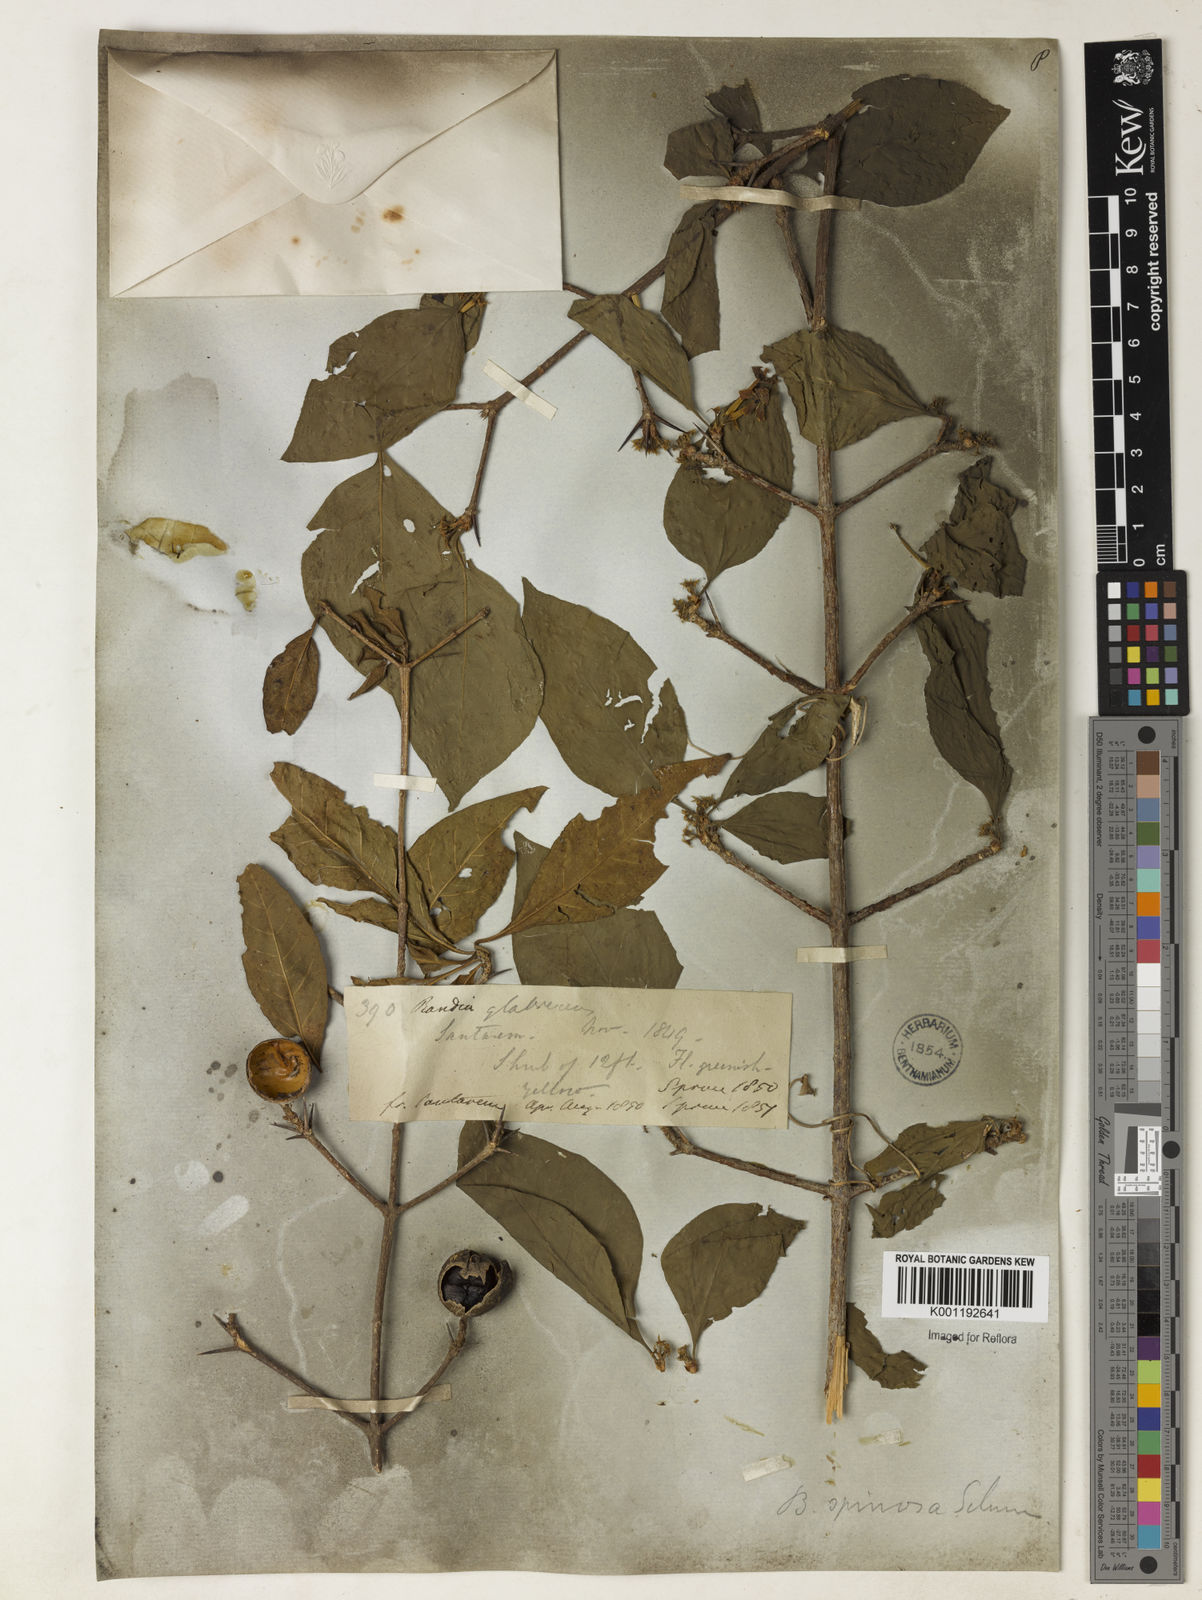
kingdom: Plantae
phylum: Tracheophyta
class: Magnoliopsida
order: Gentianales
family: Rubiaceae
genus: Randia
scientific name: Randia armata
